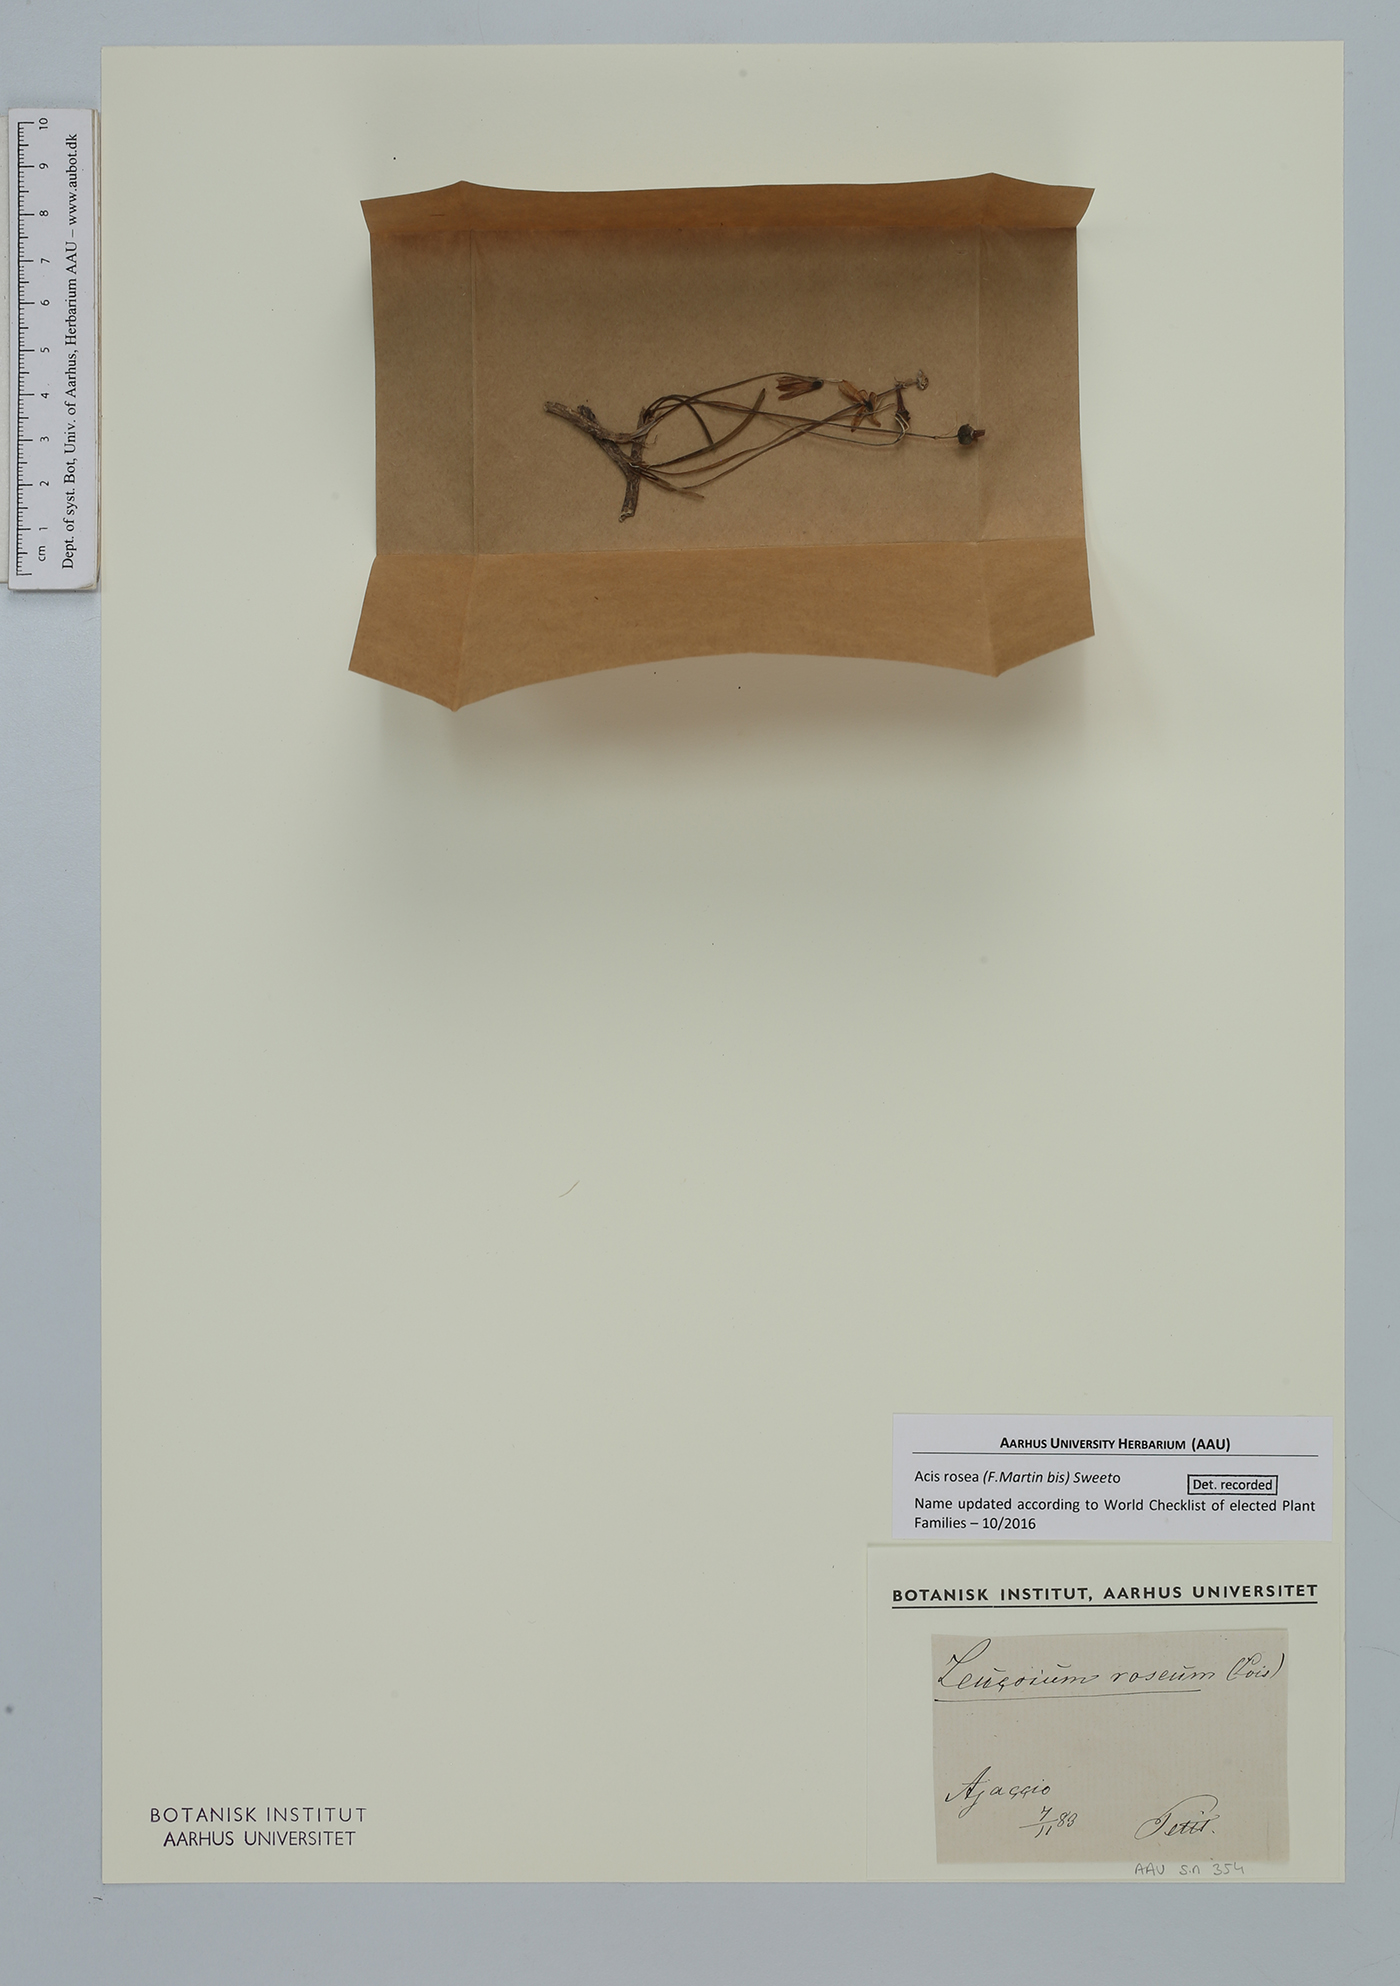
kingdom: Plantae
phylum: Tracheophyta
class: Liliopsida
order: Asparagales
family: Amaryllidaceae
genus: Acis
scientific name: Acis rosea
